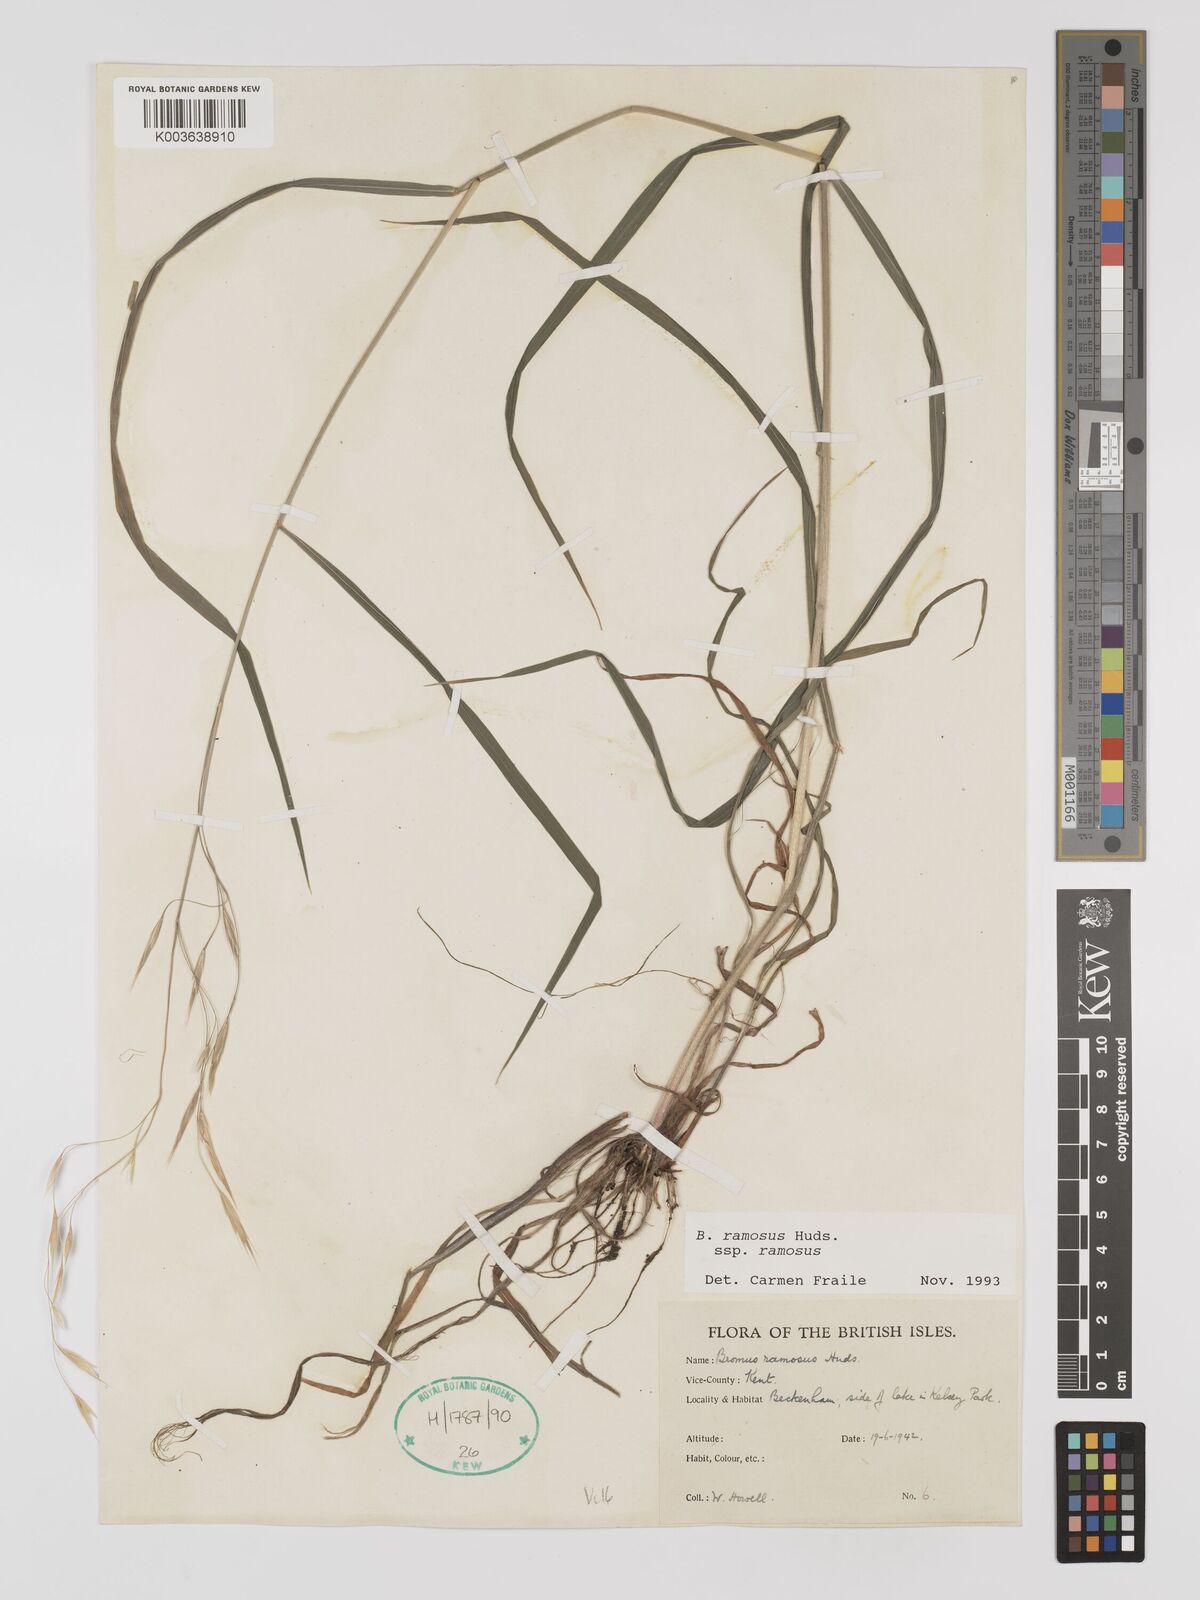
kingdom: Plantae
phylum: Tracheophyta
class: Liliopsida
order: Poales
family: Poaceae
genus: Bromus
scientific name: Bromus ramosus
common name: Hairy brome
